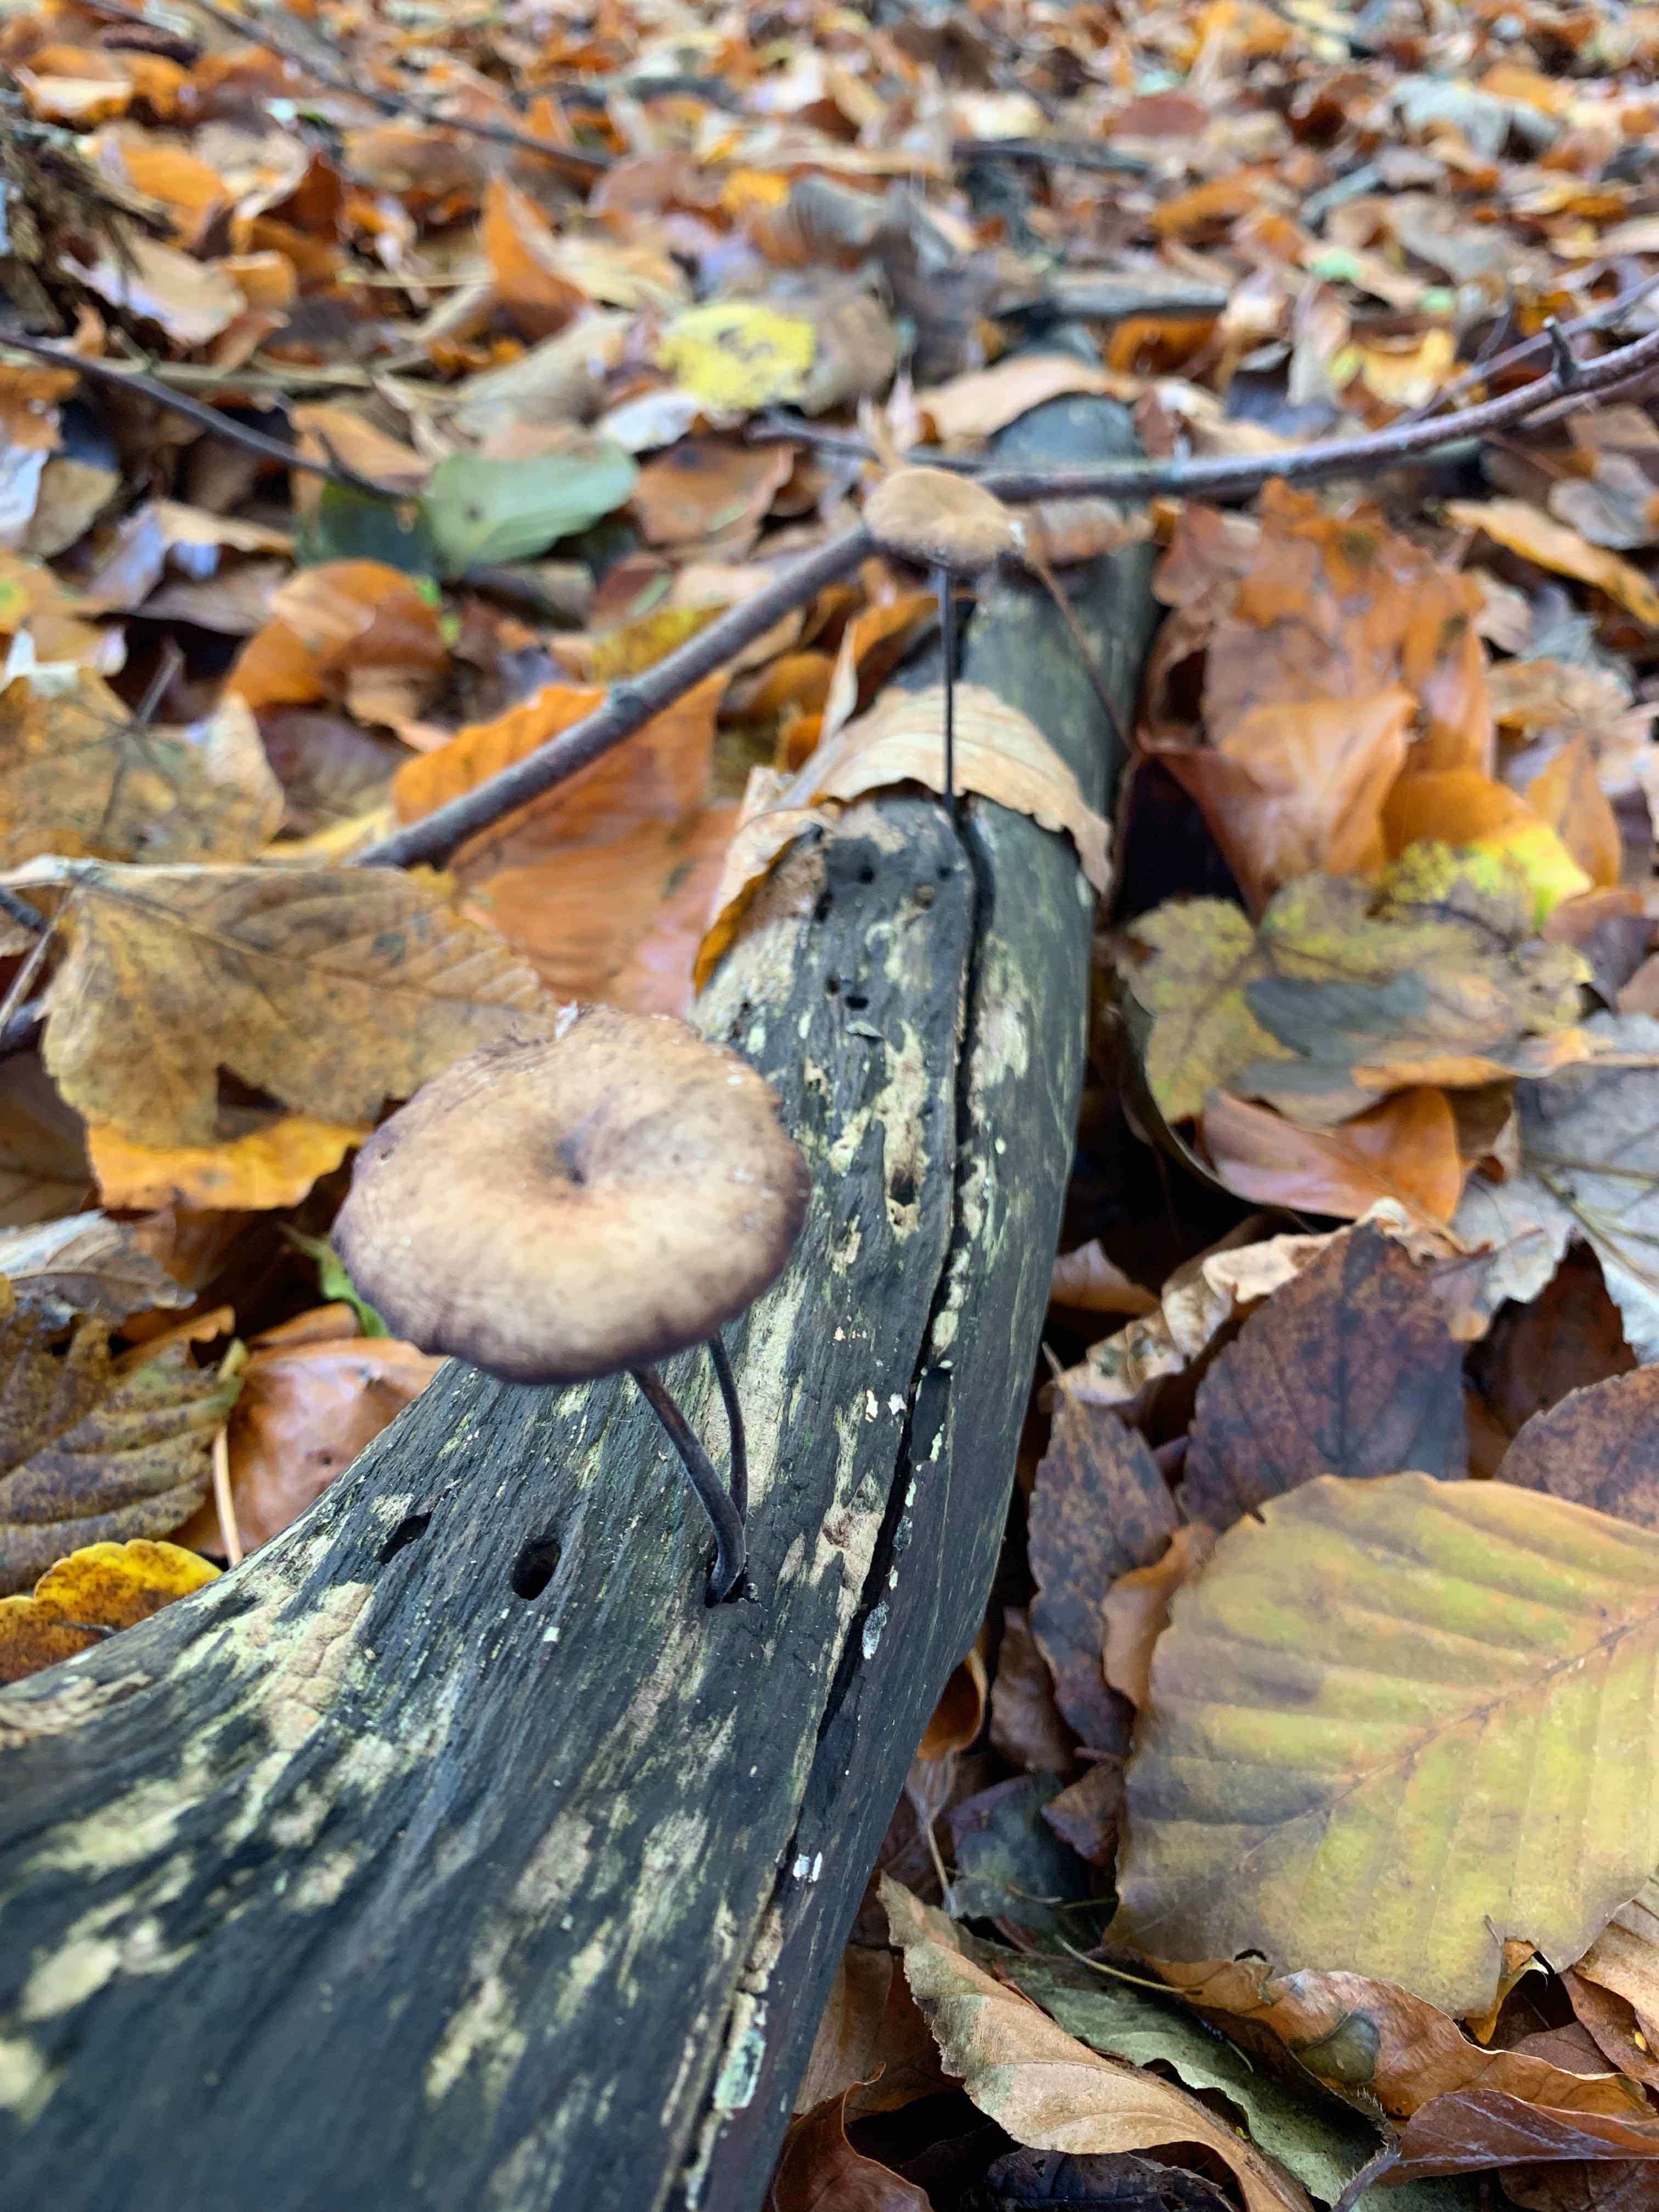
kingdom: Fungi
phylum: Basidiomycota
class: Agaricomycetes
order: Agaricales
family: Omphalotaceae
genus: Mycetinis
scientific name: Mycetinis alliaceus
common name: stor løghat
